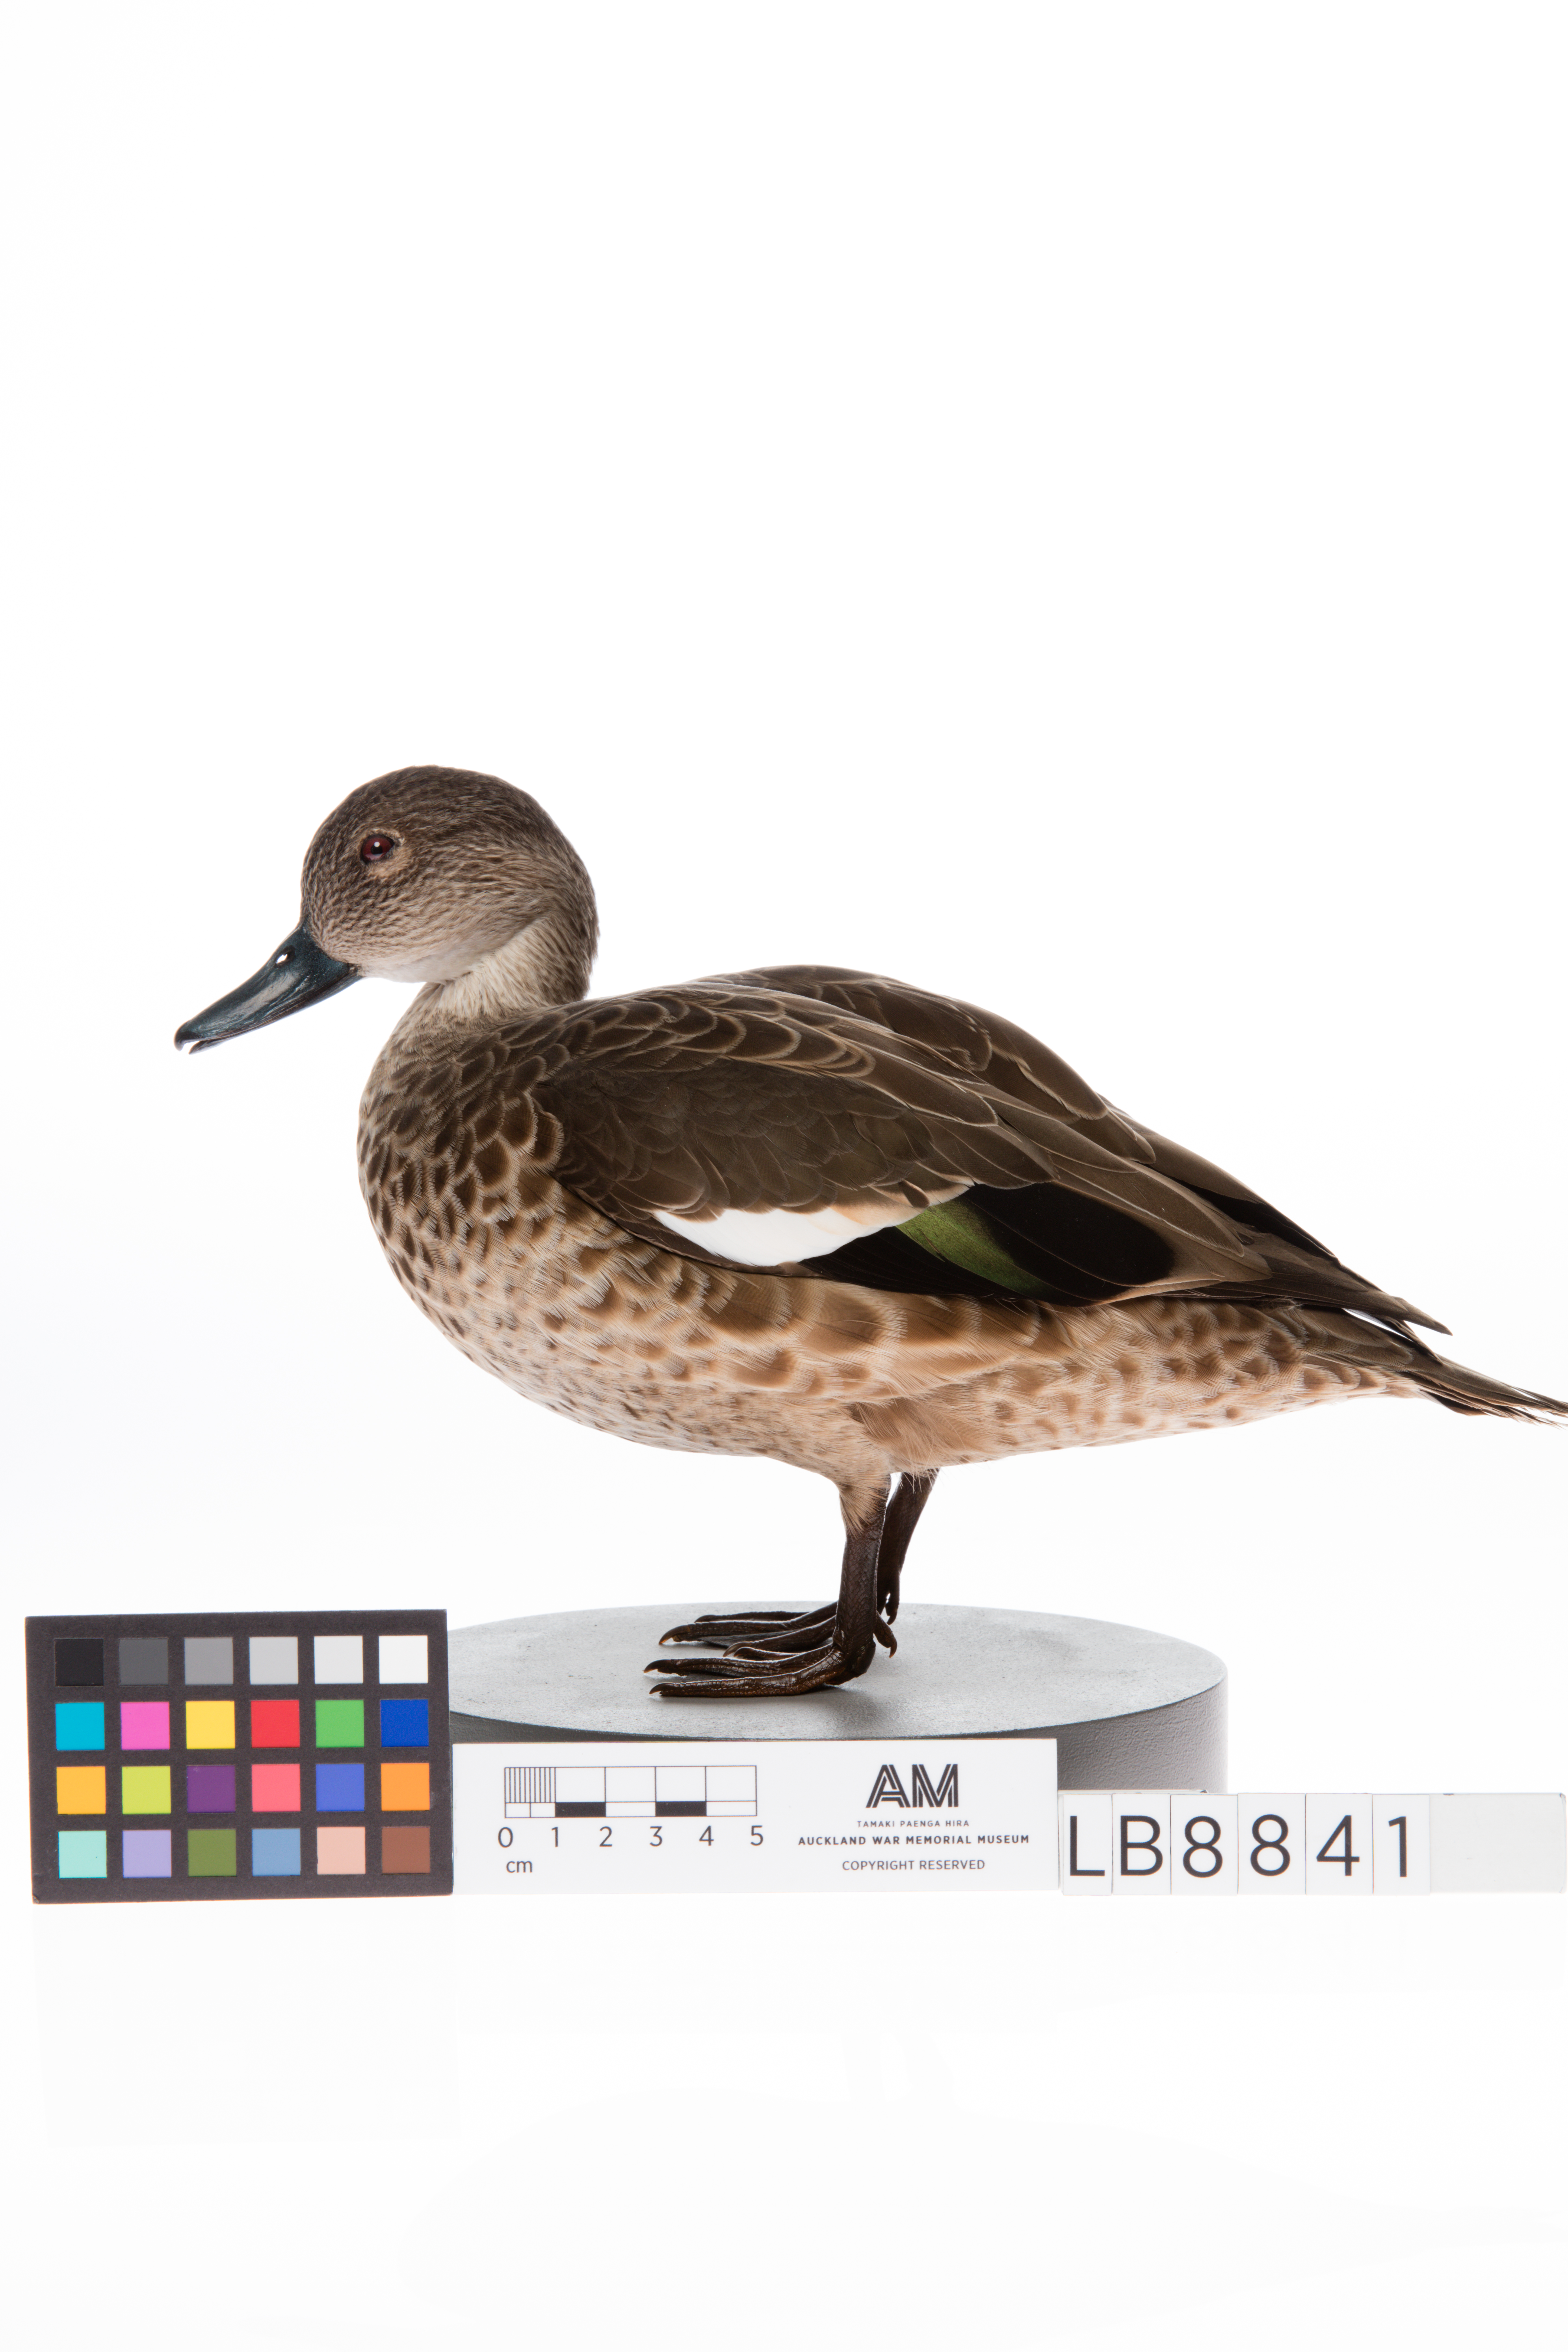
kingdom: Animalia
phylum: Chordata
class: Aves
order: Anseriformes
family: Anatidae
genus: Anas
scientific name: Anas gracilis
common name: Grey teal
